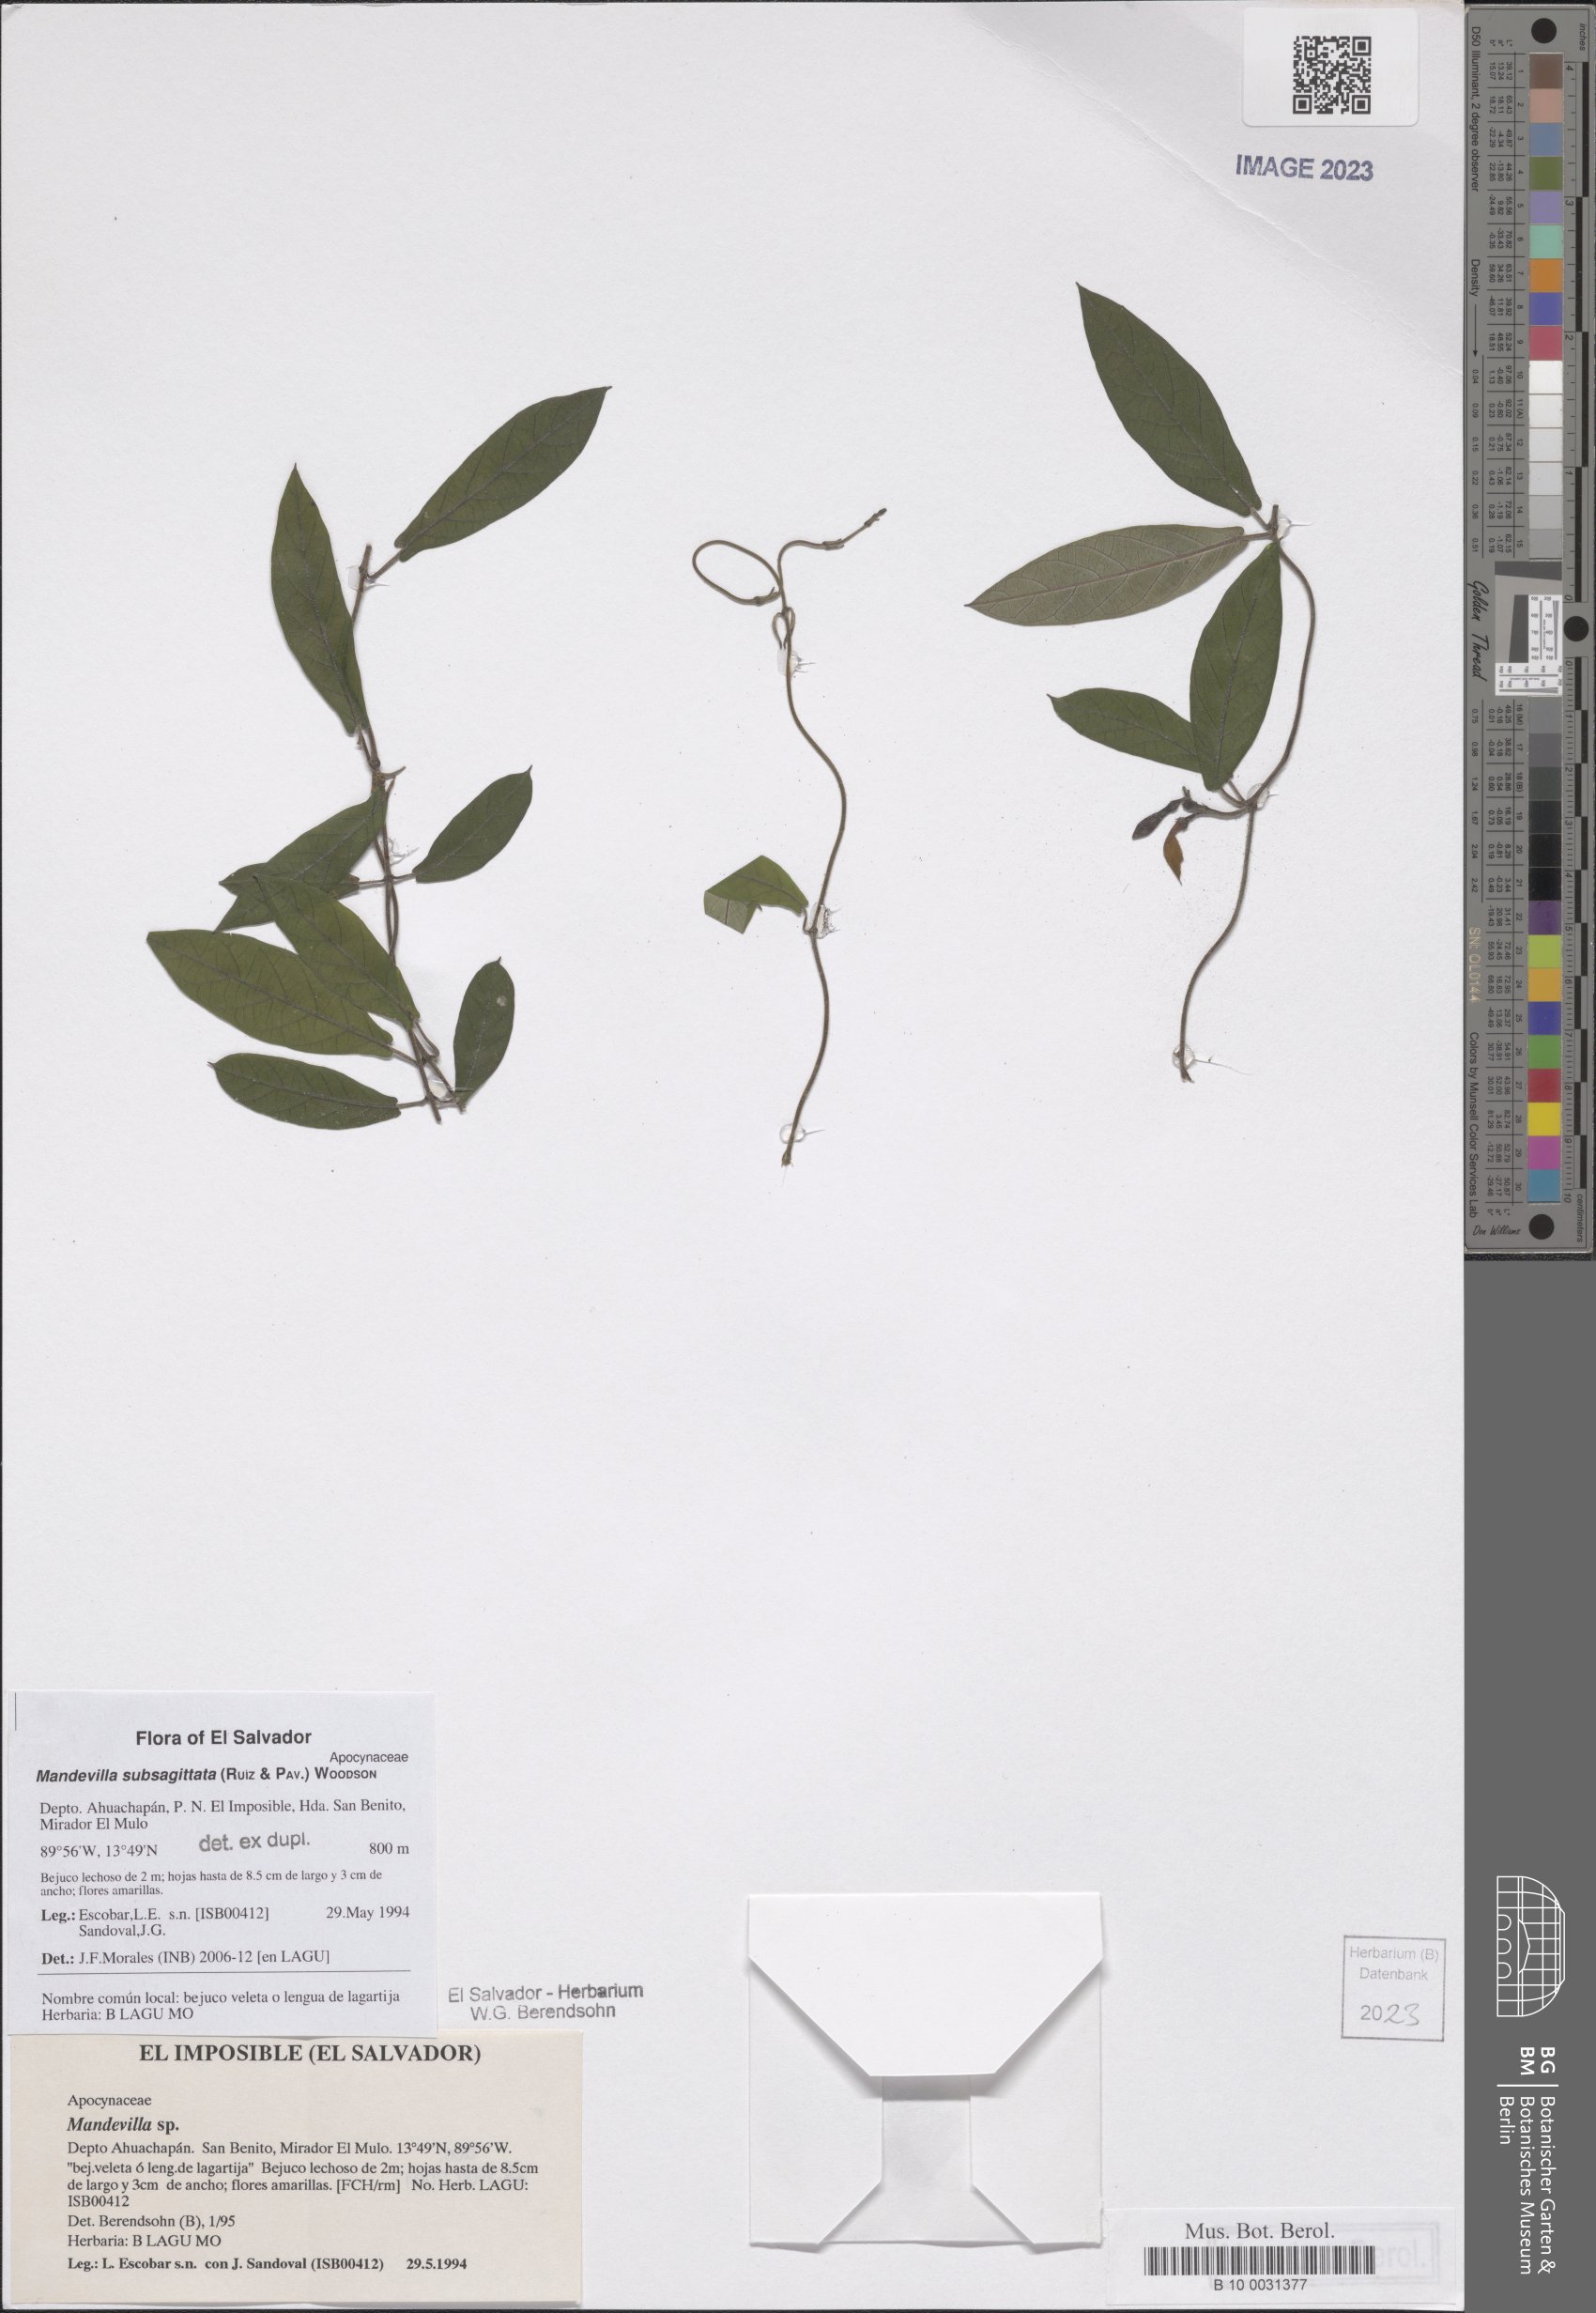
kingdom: Plantae
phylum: Tracheophyta
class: Magnoliopsida
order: Gentianales
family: Apocynaceae
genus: Mandevilla
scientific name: Mandevilla subsagittata
